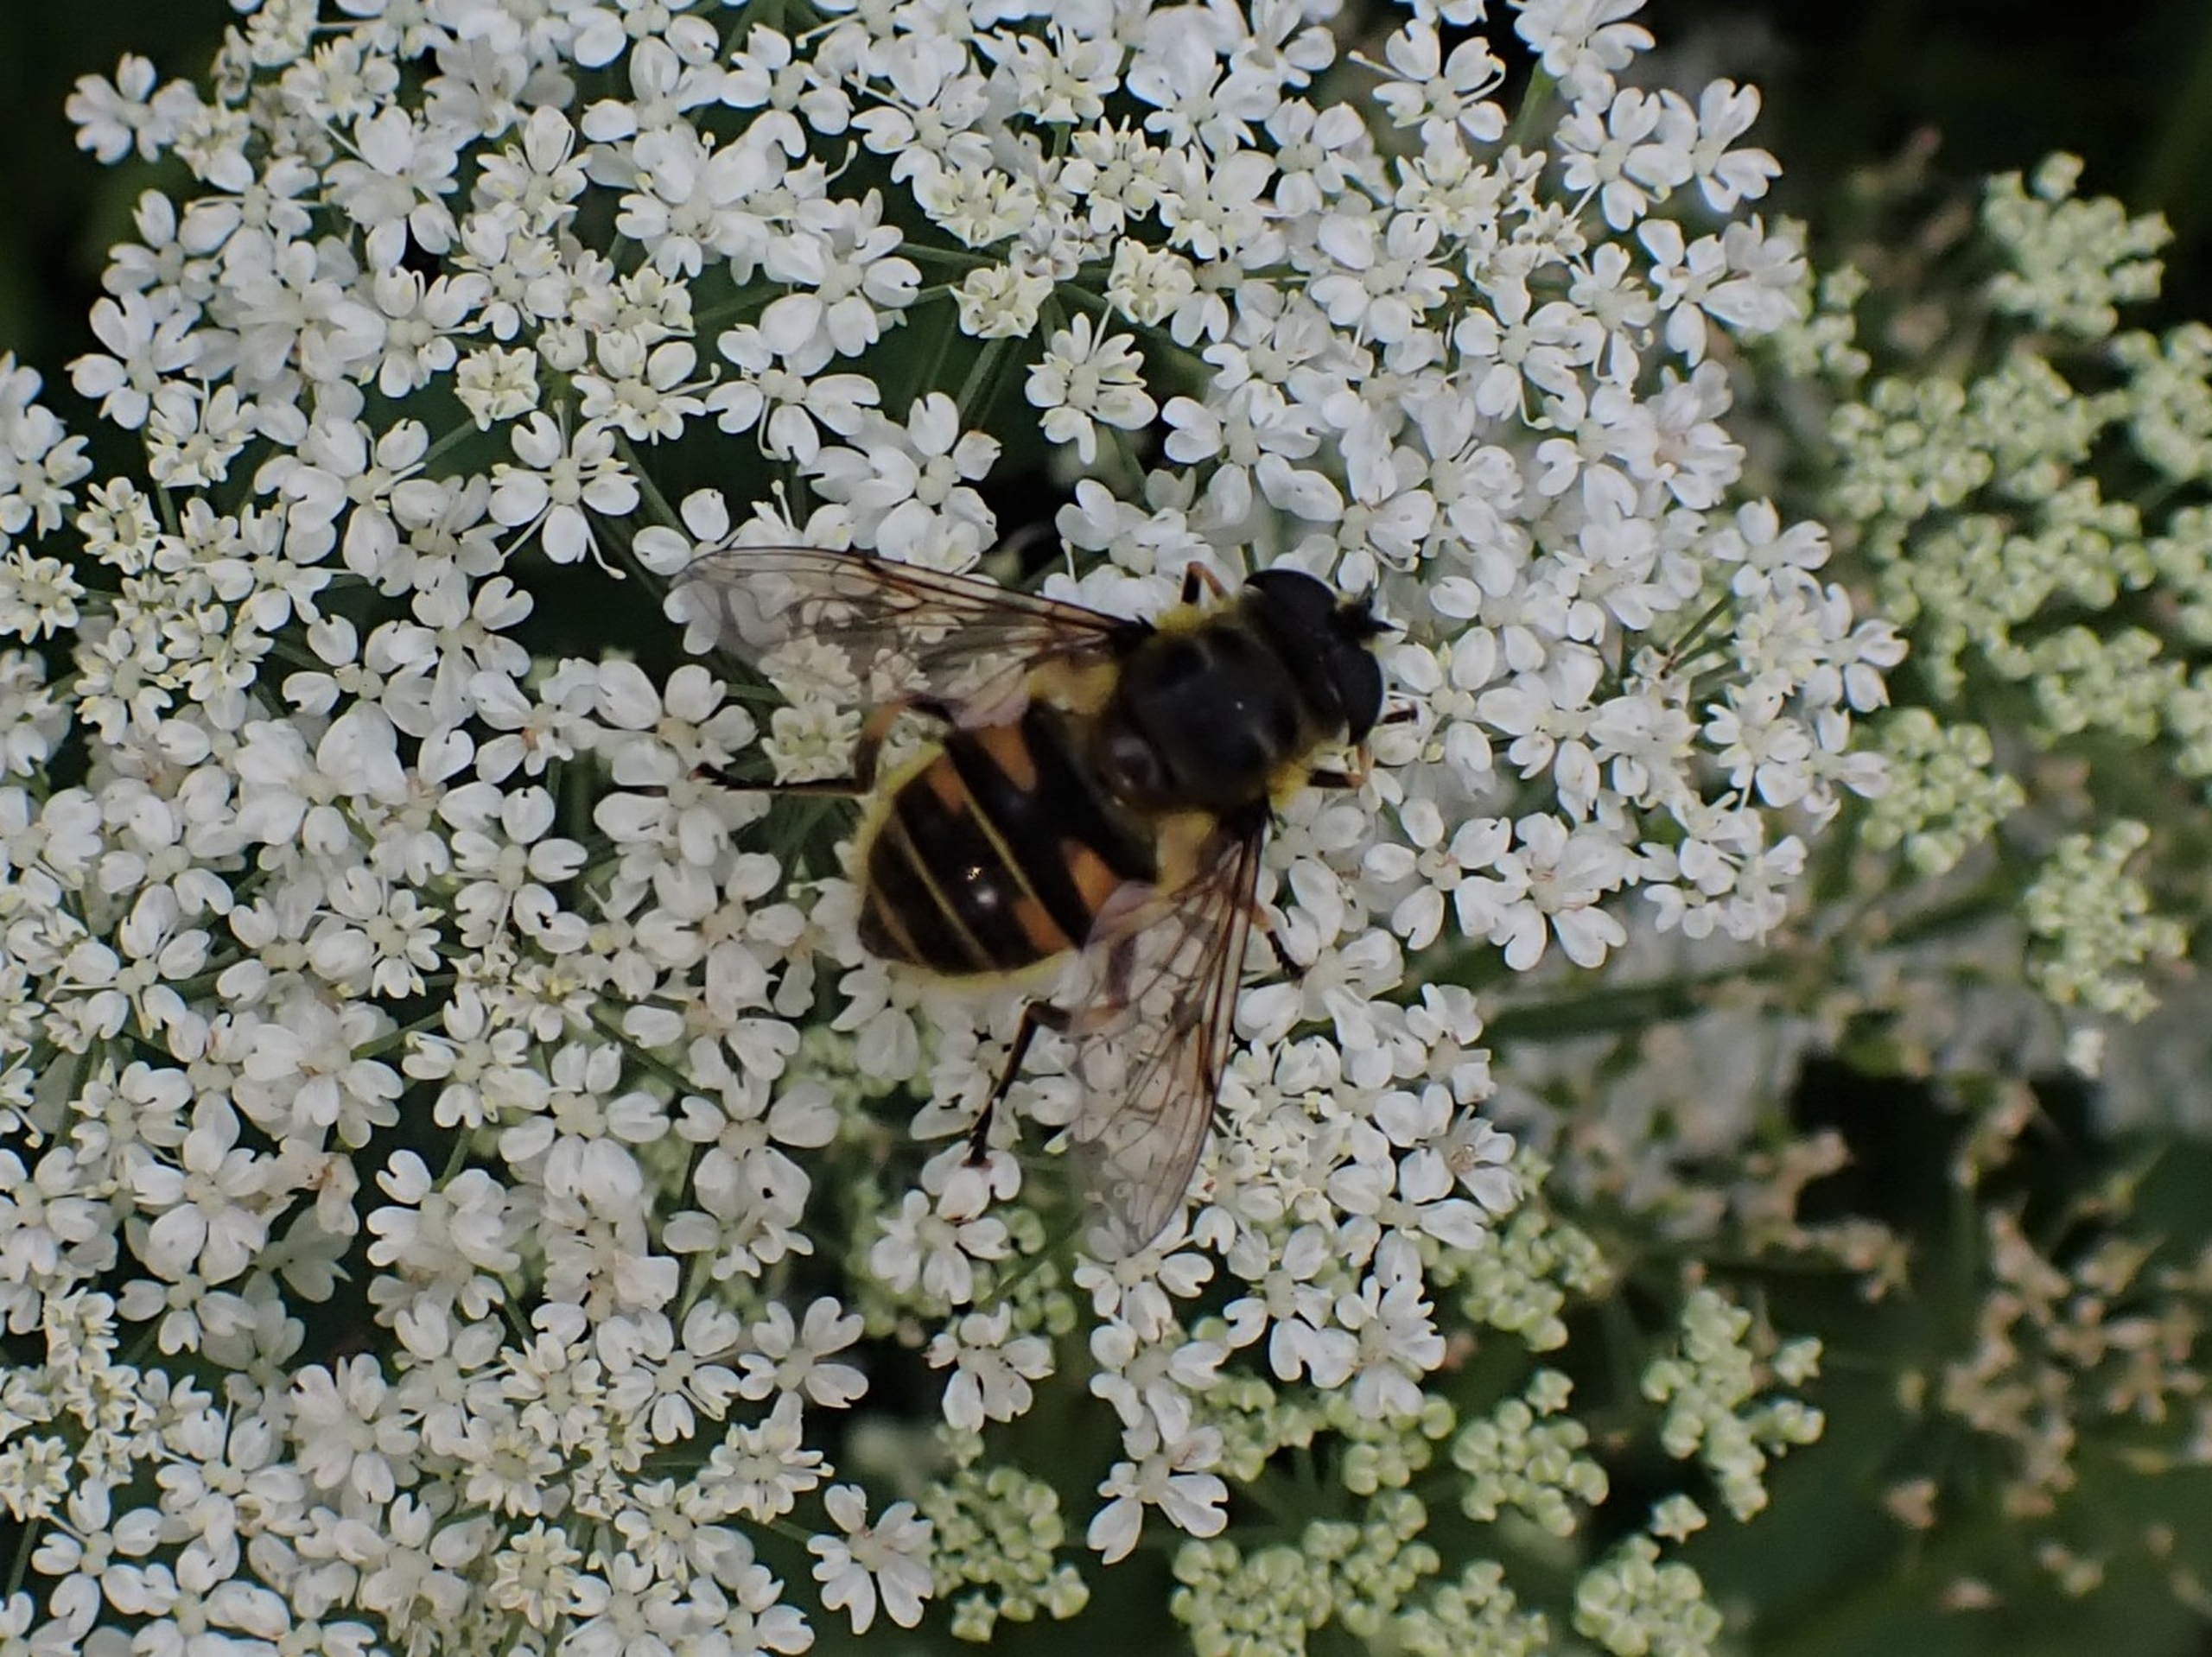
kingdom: Animalia
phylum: Arthropoda
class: Insecta
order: Diptera
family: Syrphidae
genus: Myathropa
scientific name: Myathropa florea
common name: Dødningehoved-svirreflue
